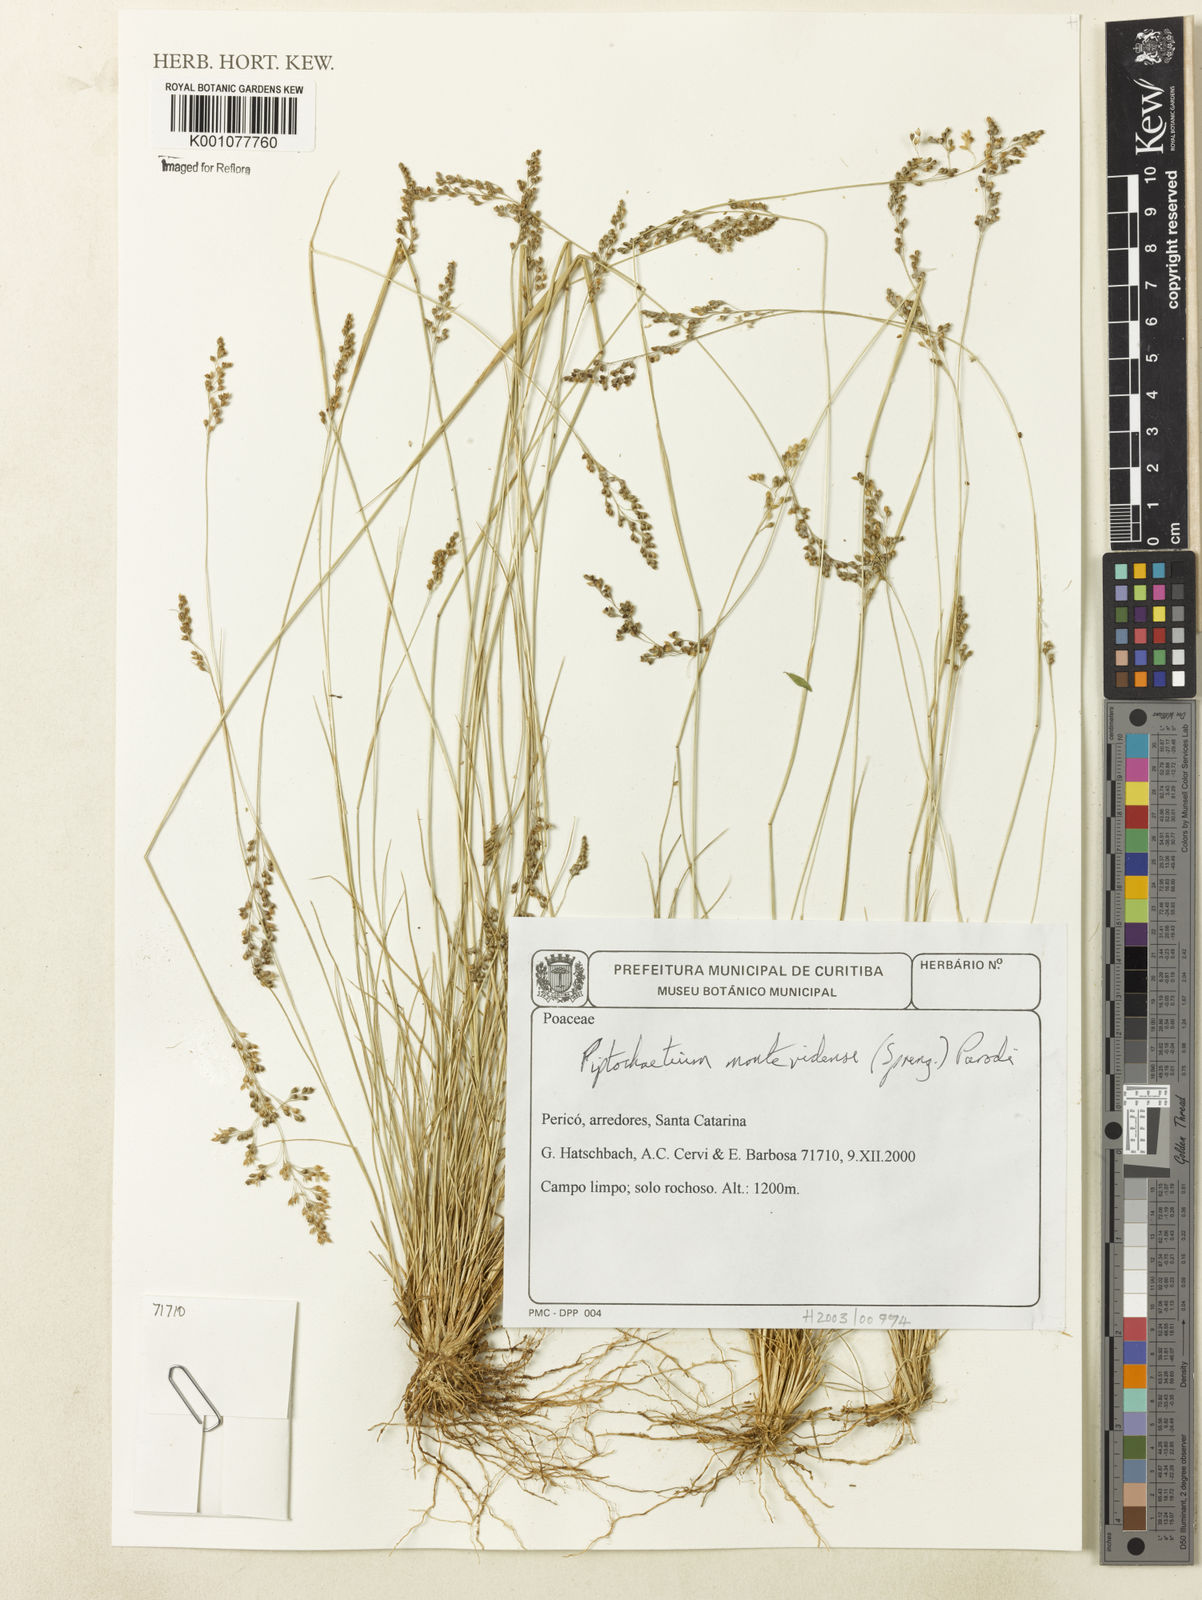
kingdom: Plantae
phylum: Tracheophyta
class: Liliopsida
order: Poales
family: Poaceae
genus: Piptochaetium
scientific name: Piptochaetium montevidense
